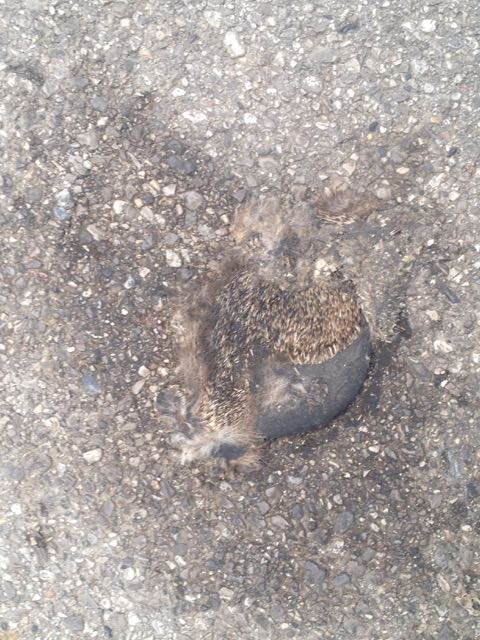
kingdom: Animalia
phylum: Chordata
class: Mammalia
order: Erinaceomorpha
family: Erinaceidae
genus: Erinaceus
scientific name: Erinaceus
